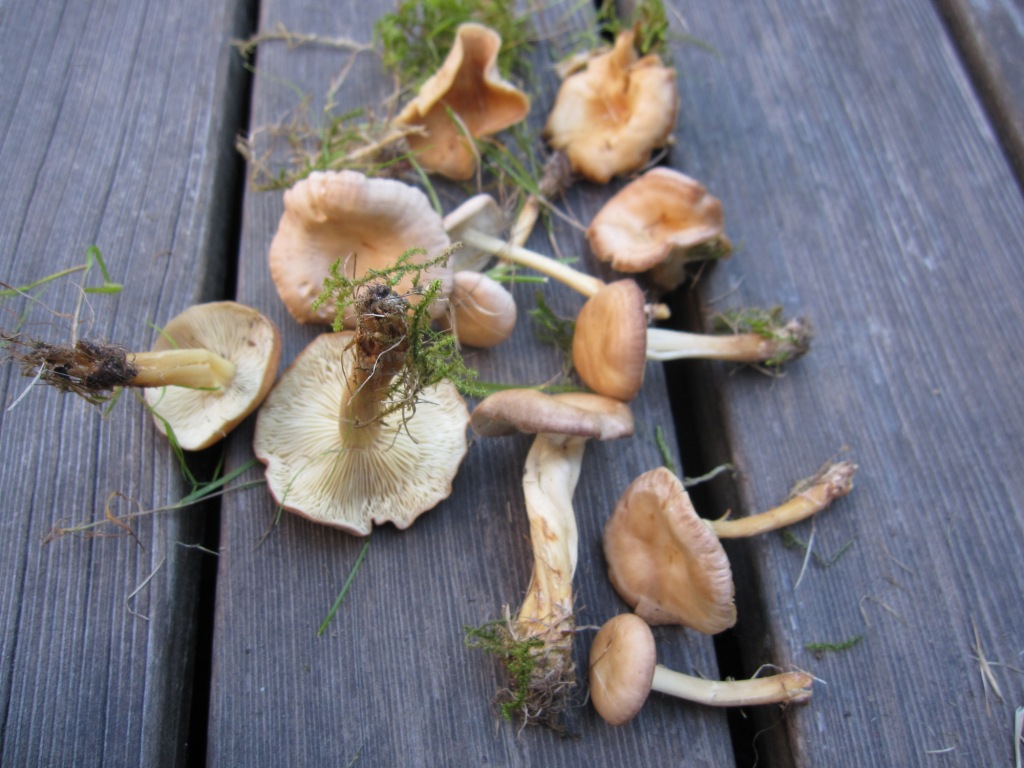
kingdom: Fungi
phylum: Basidiomycota
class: Agaricomycetes
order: Agaricales
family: Omphalotaceae
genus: Gymnopus
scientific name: Gymnopus ocior
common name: mørk fladhat
